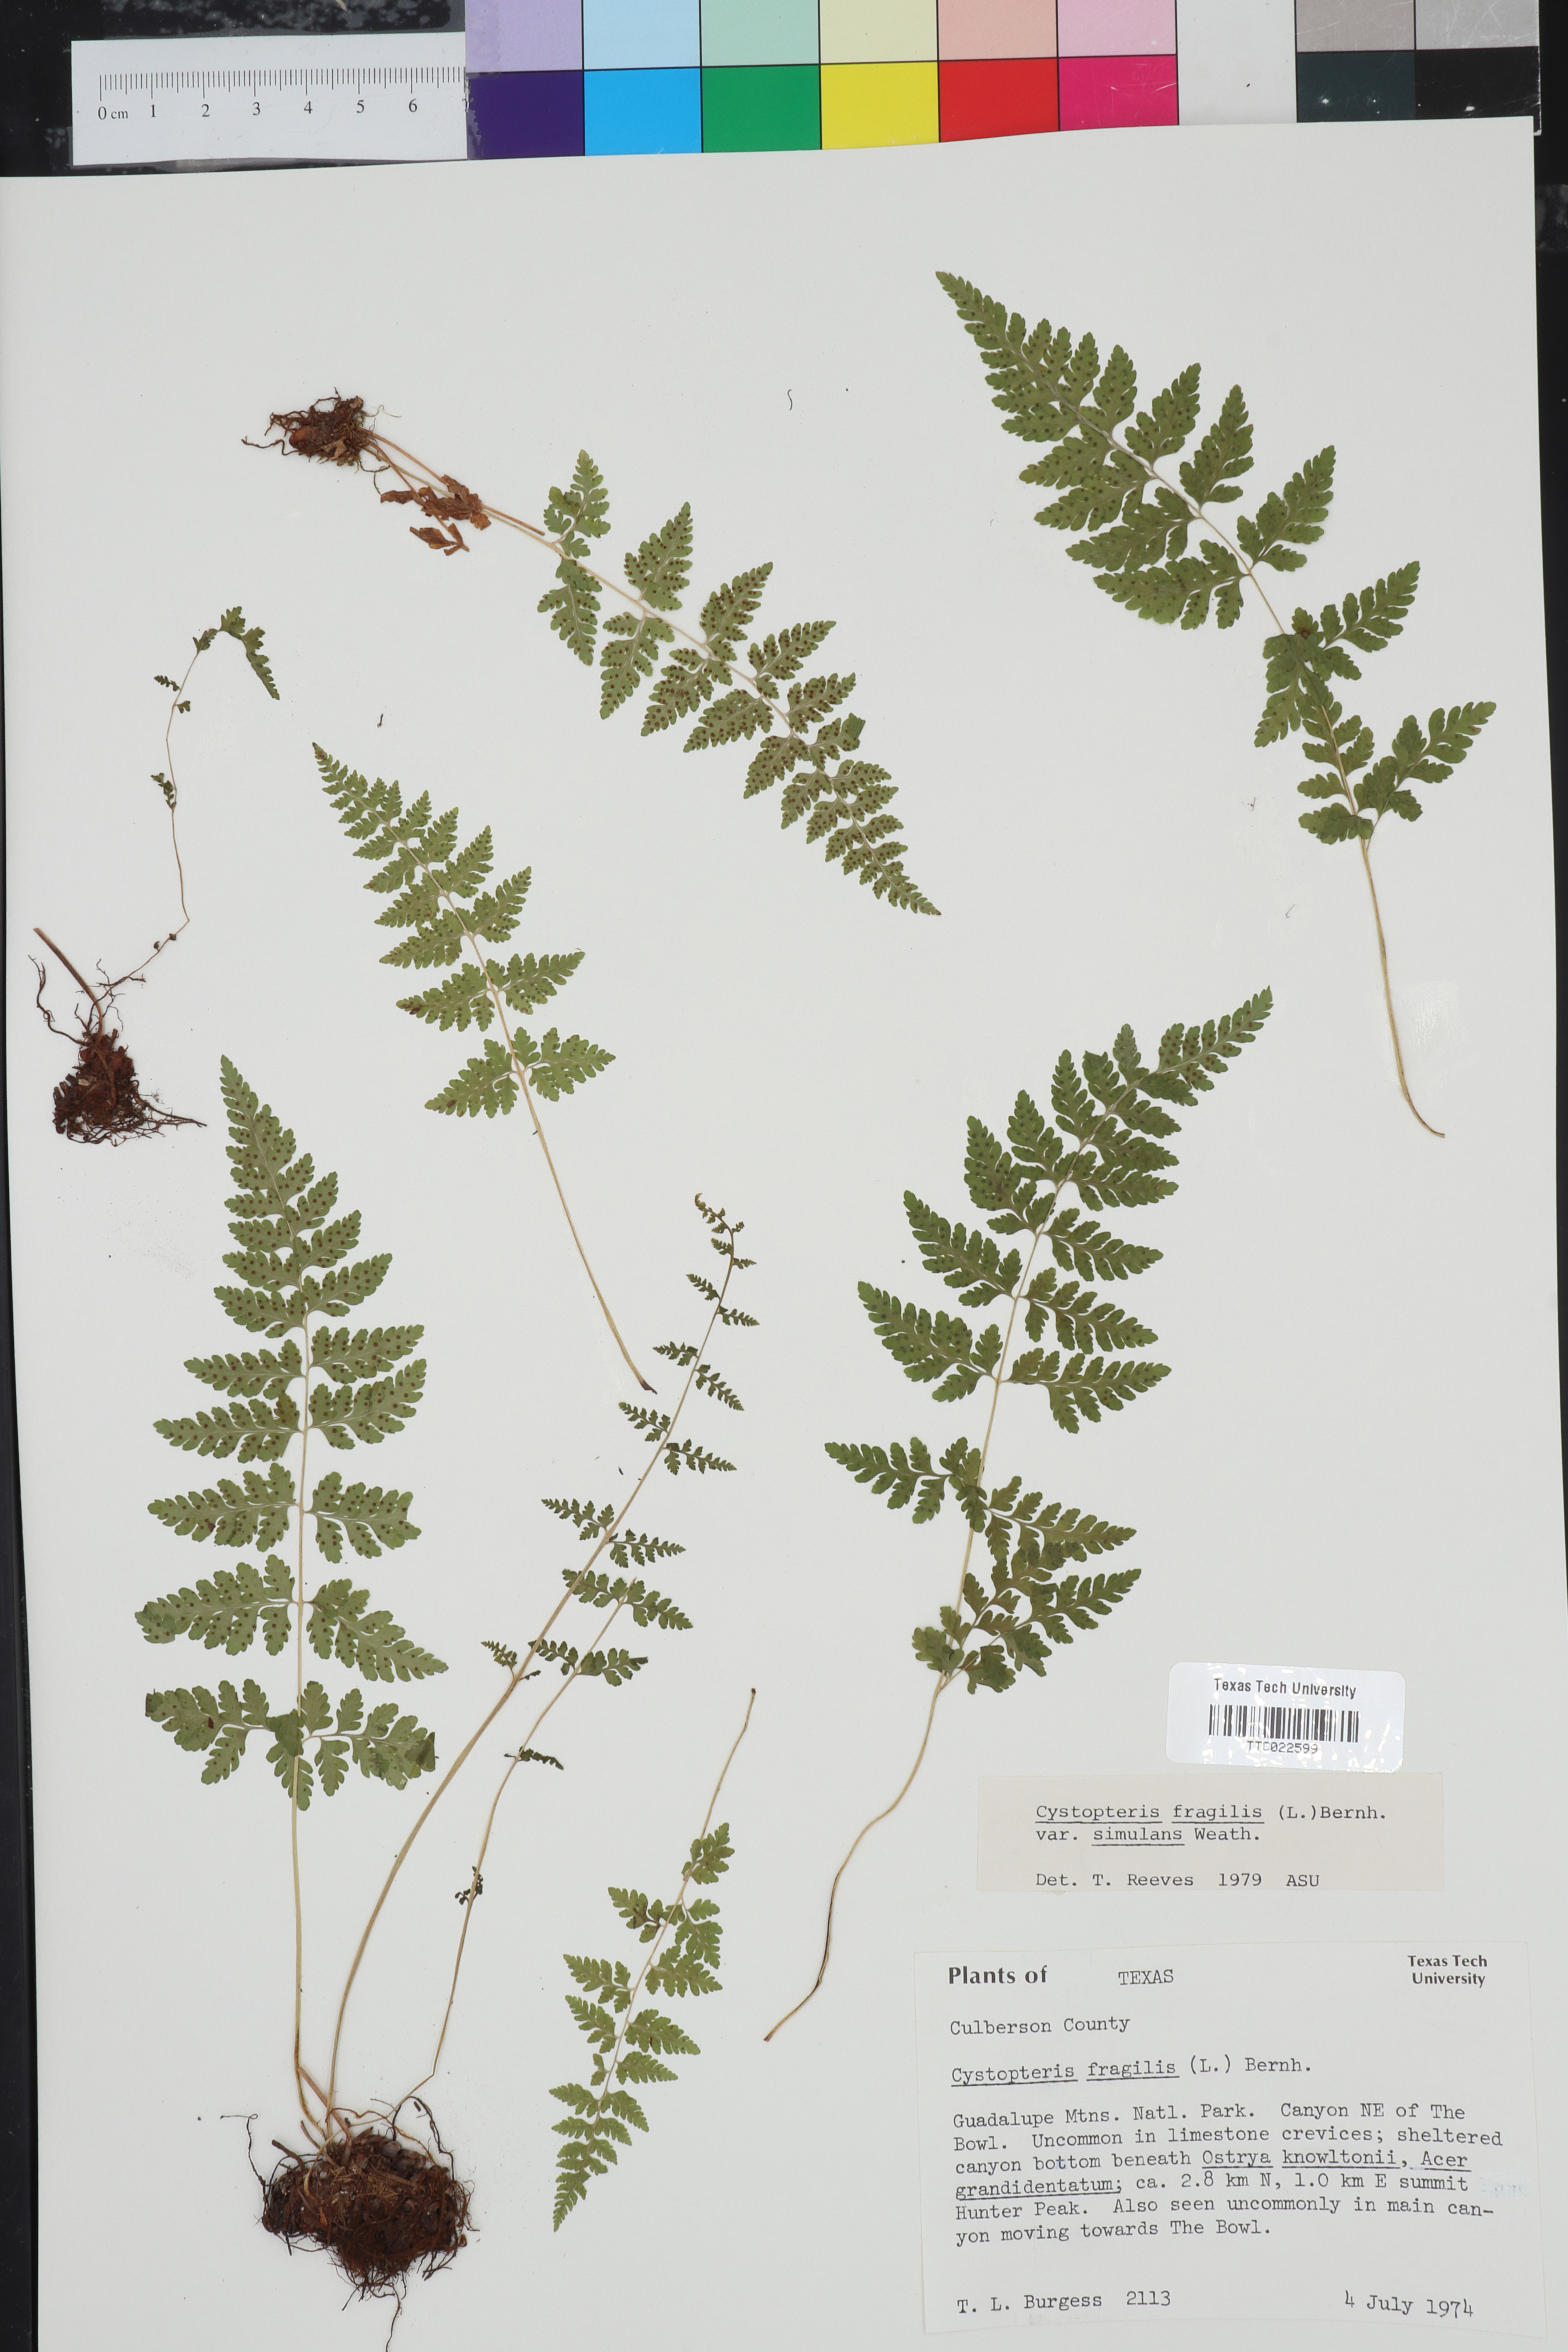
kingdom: Plantae
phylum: Tracheophyta
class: Polypodiopsida
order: Polypodiales
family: Cystopteridaceae
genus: Cystopteris
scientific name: Cystopteris fragilis
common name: Brittle bladder fern
